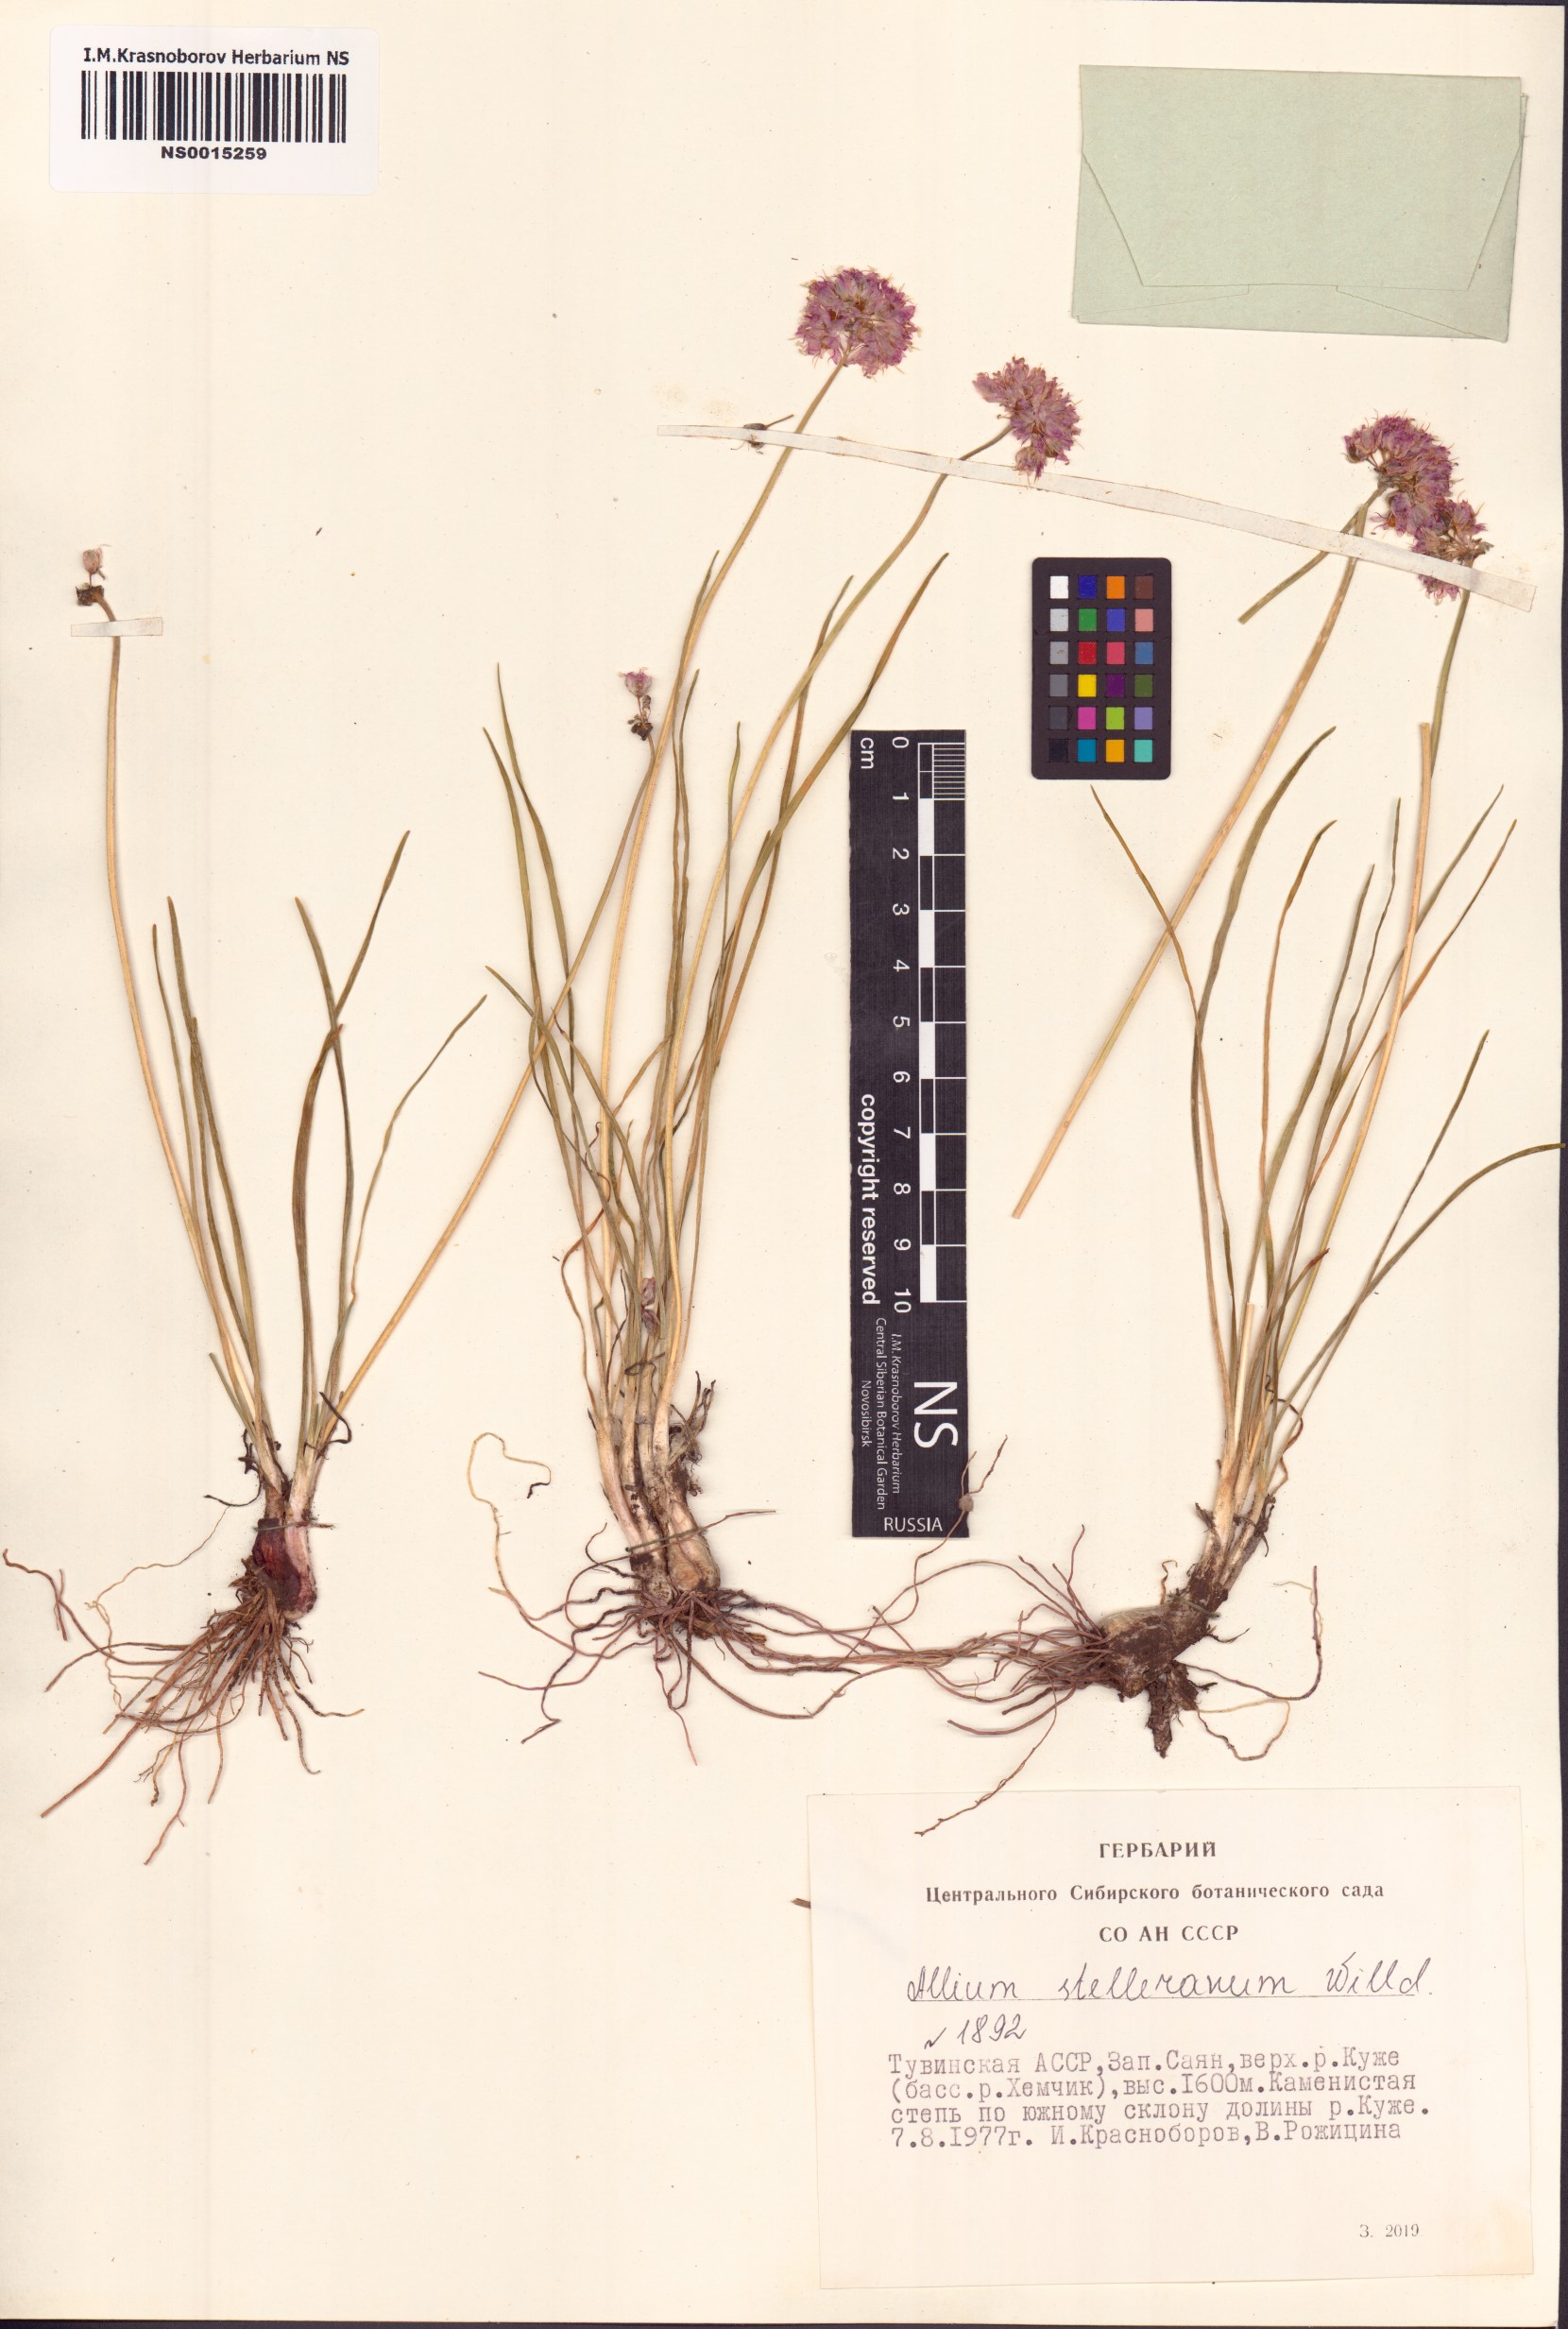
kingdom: Plantae
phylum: Tracheophyta
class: Liliopsida
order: Asparagales
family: Amaryllidaceae
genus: Allium
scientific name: Allium stellerianum
